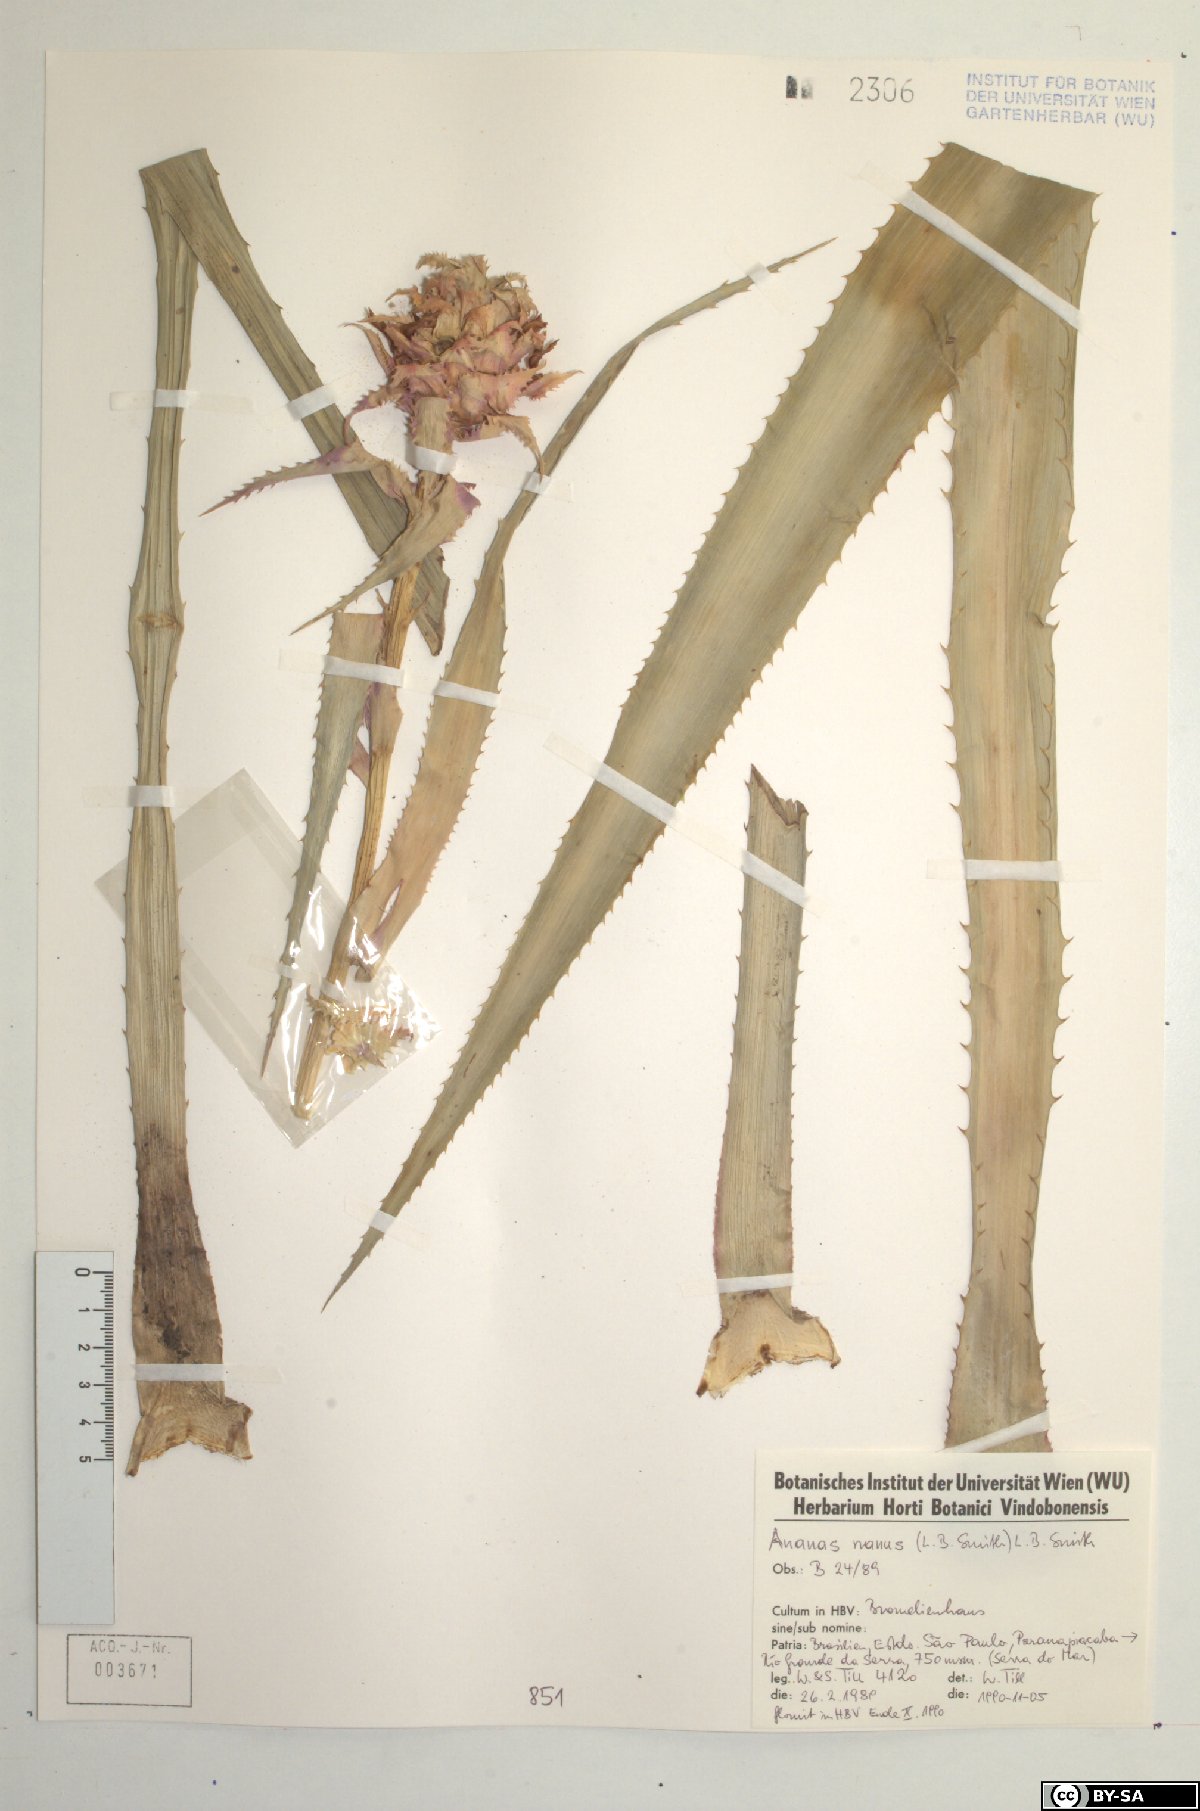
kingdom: Plantae
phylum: Tracheophyta
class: Liliopsida
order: Poales
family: Bromeliaceae
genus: Ananas
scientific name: Ananas comosus
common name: Pineapple
